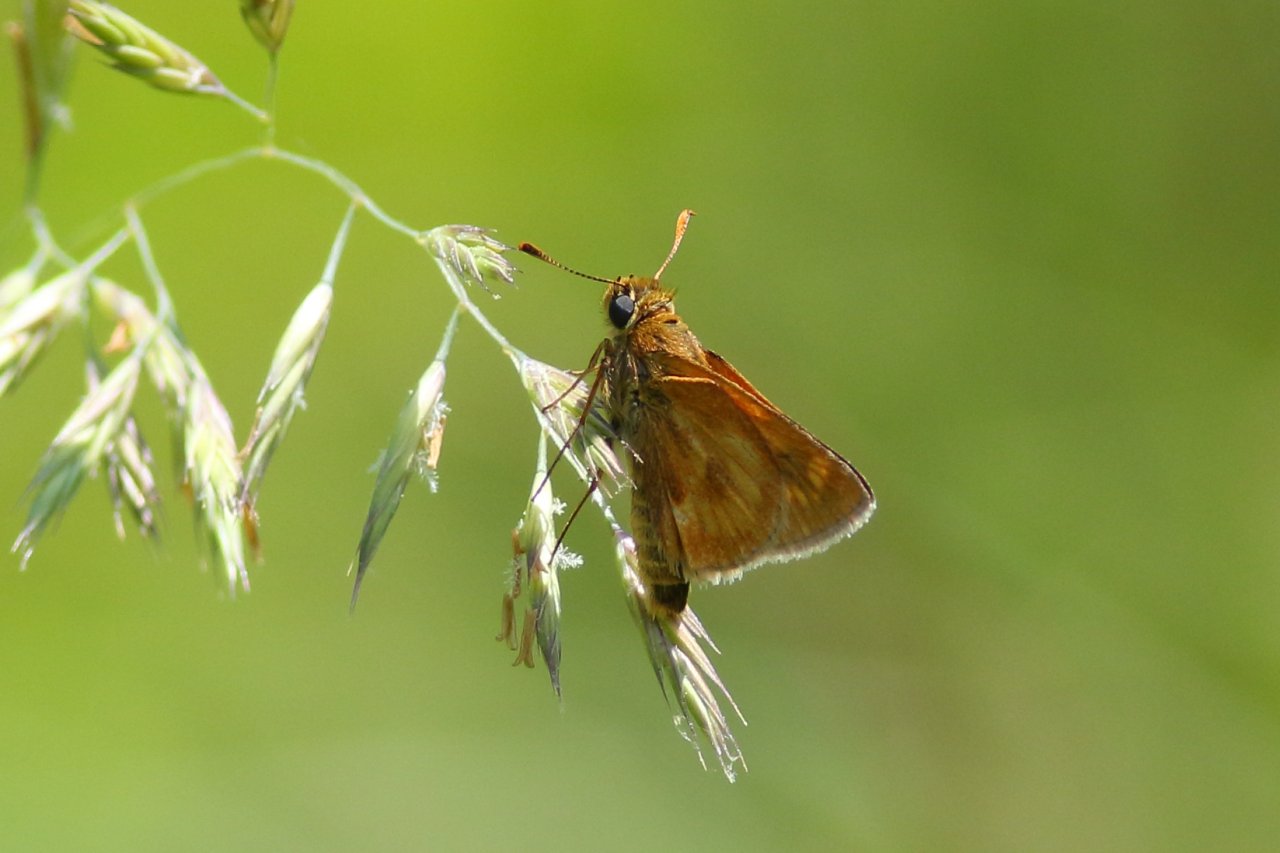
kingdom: Animalia
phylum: Arthropoda
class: Insecta
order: Lepidoptera
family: Hesperiidae
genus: Polites
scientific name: Polites
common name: Long Dash Skipper
